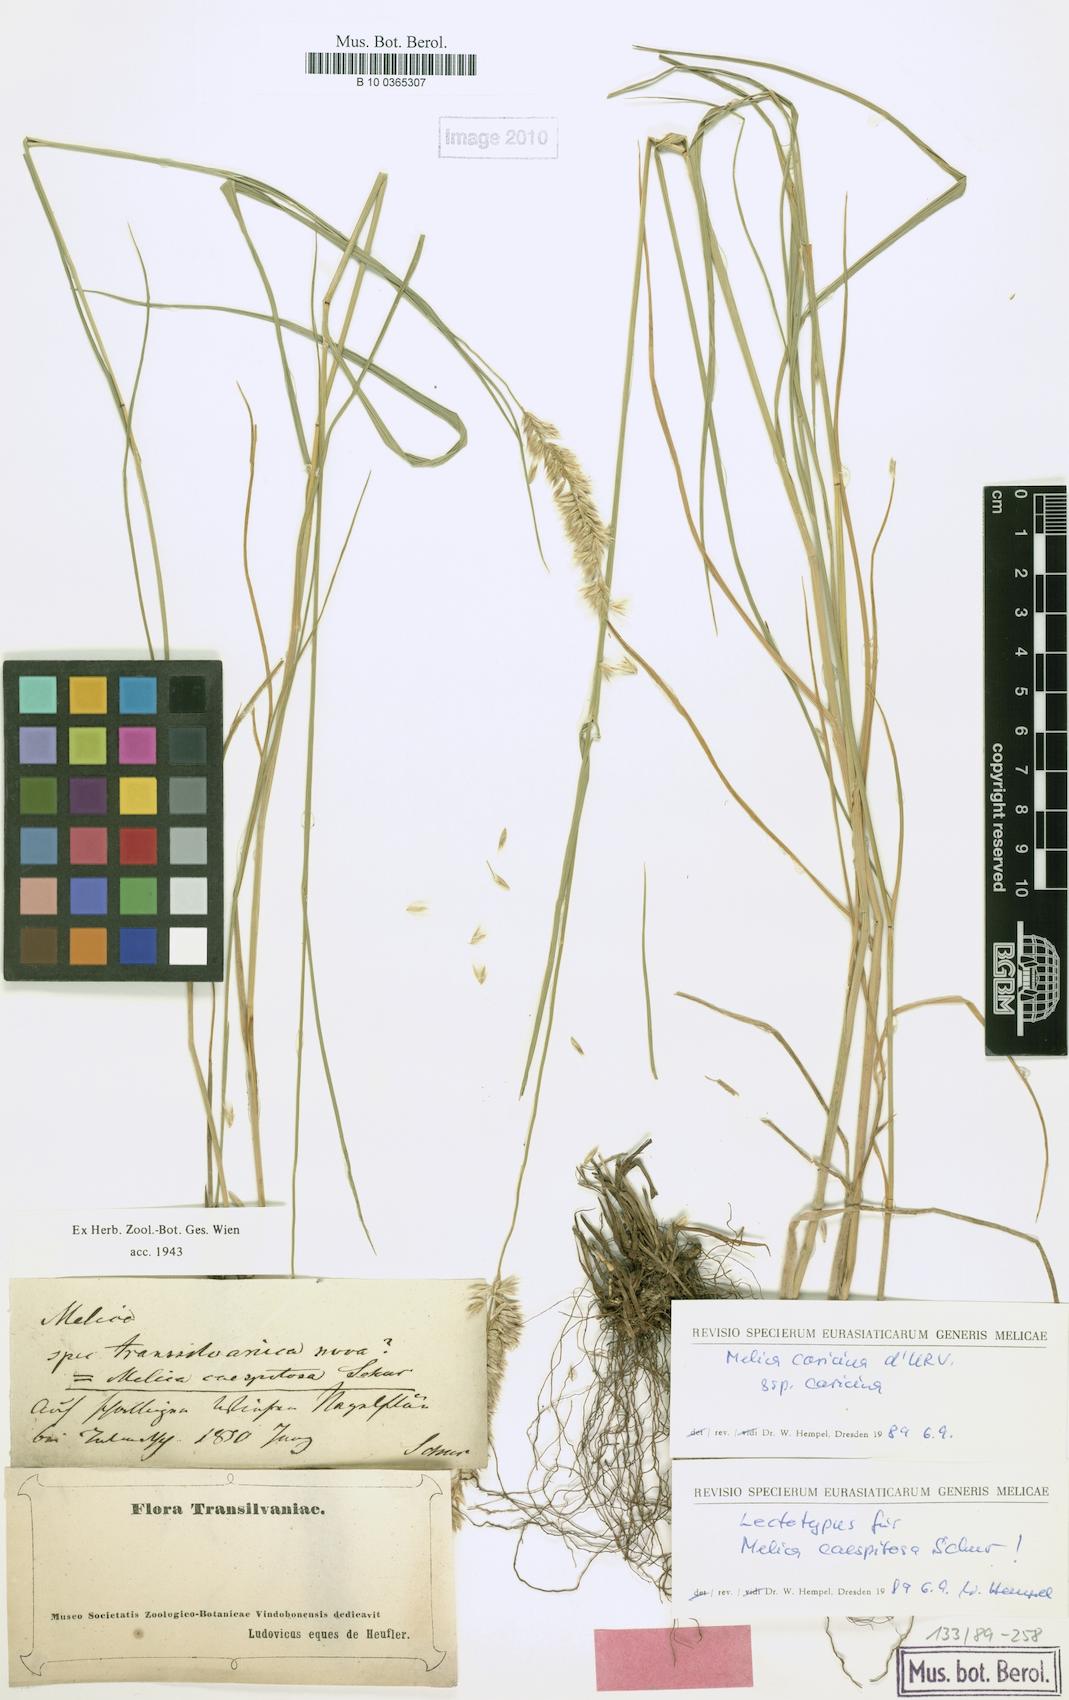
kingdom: Plantae
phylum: Tracheophyta
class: Liliopsida
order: Poales
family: Poaceae
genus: Melica
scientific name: Melica ciliata
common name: Hairy melicgrass
